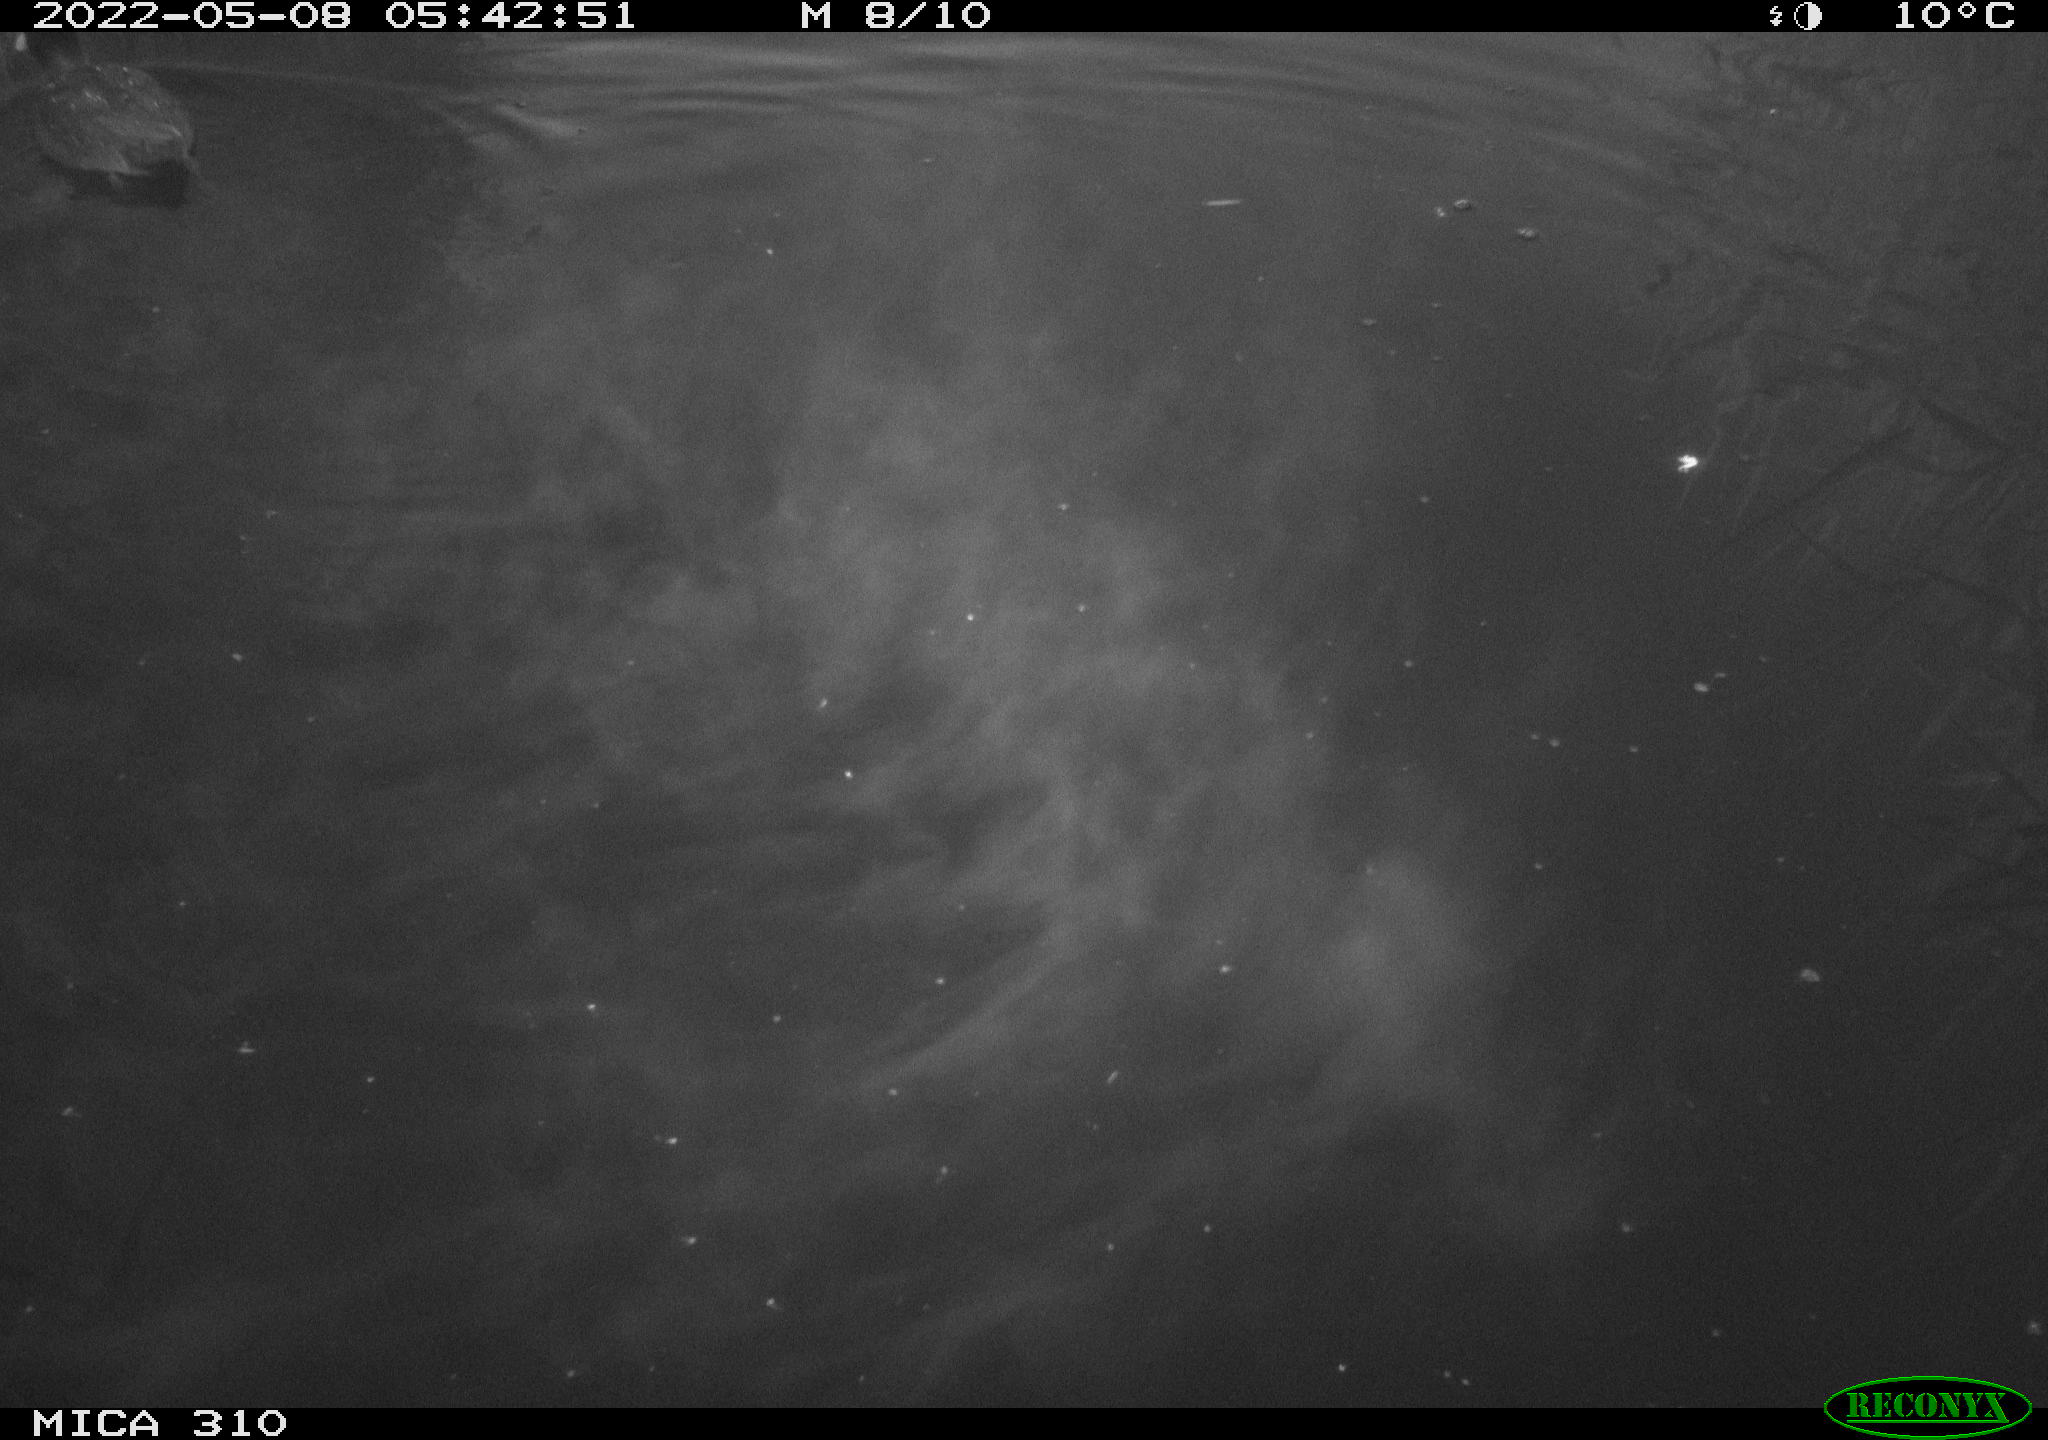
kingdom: Animalia
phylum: Chordata
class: Aves
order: Gruiformes
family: Rallidae
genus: Fulica
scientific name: Fulica atra
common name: Eurasian coot
